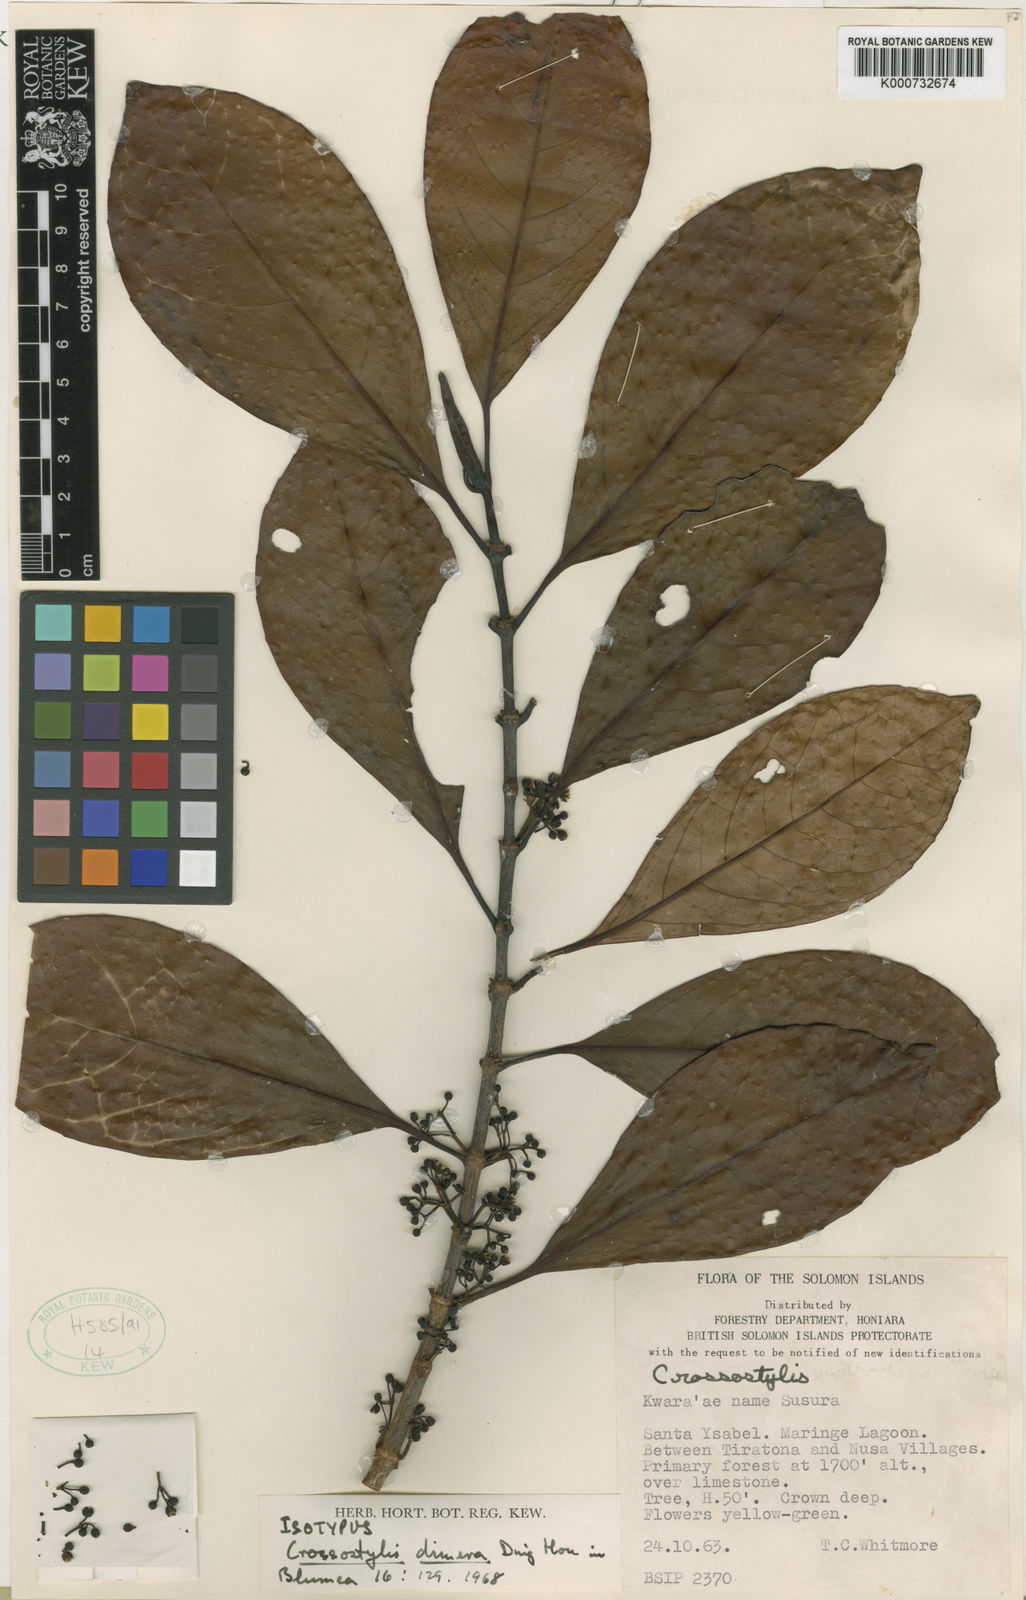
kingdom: Plantae
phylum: Tracheophyta
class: Magnoliopsida
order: Malpighiales
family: Rhizophoraceae
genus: Crossostylis
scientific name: Crossostylis dimera
